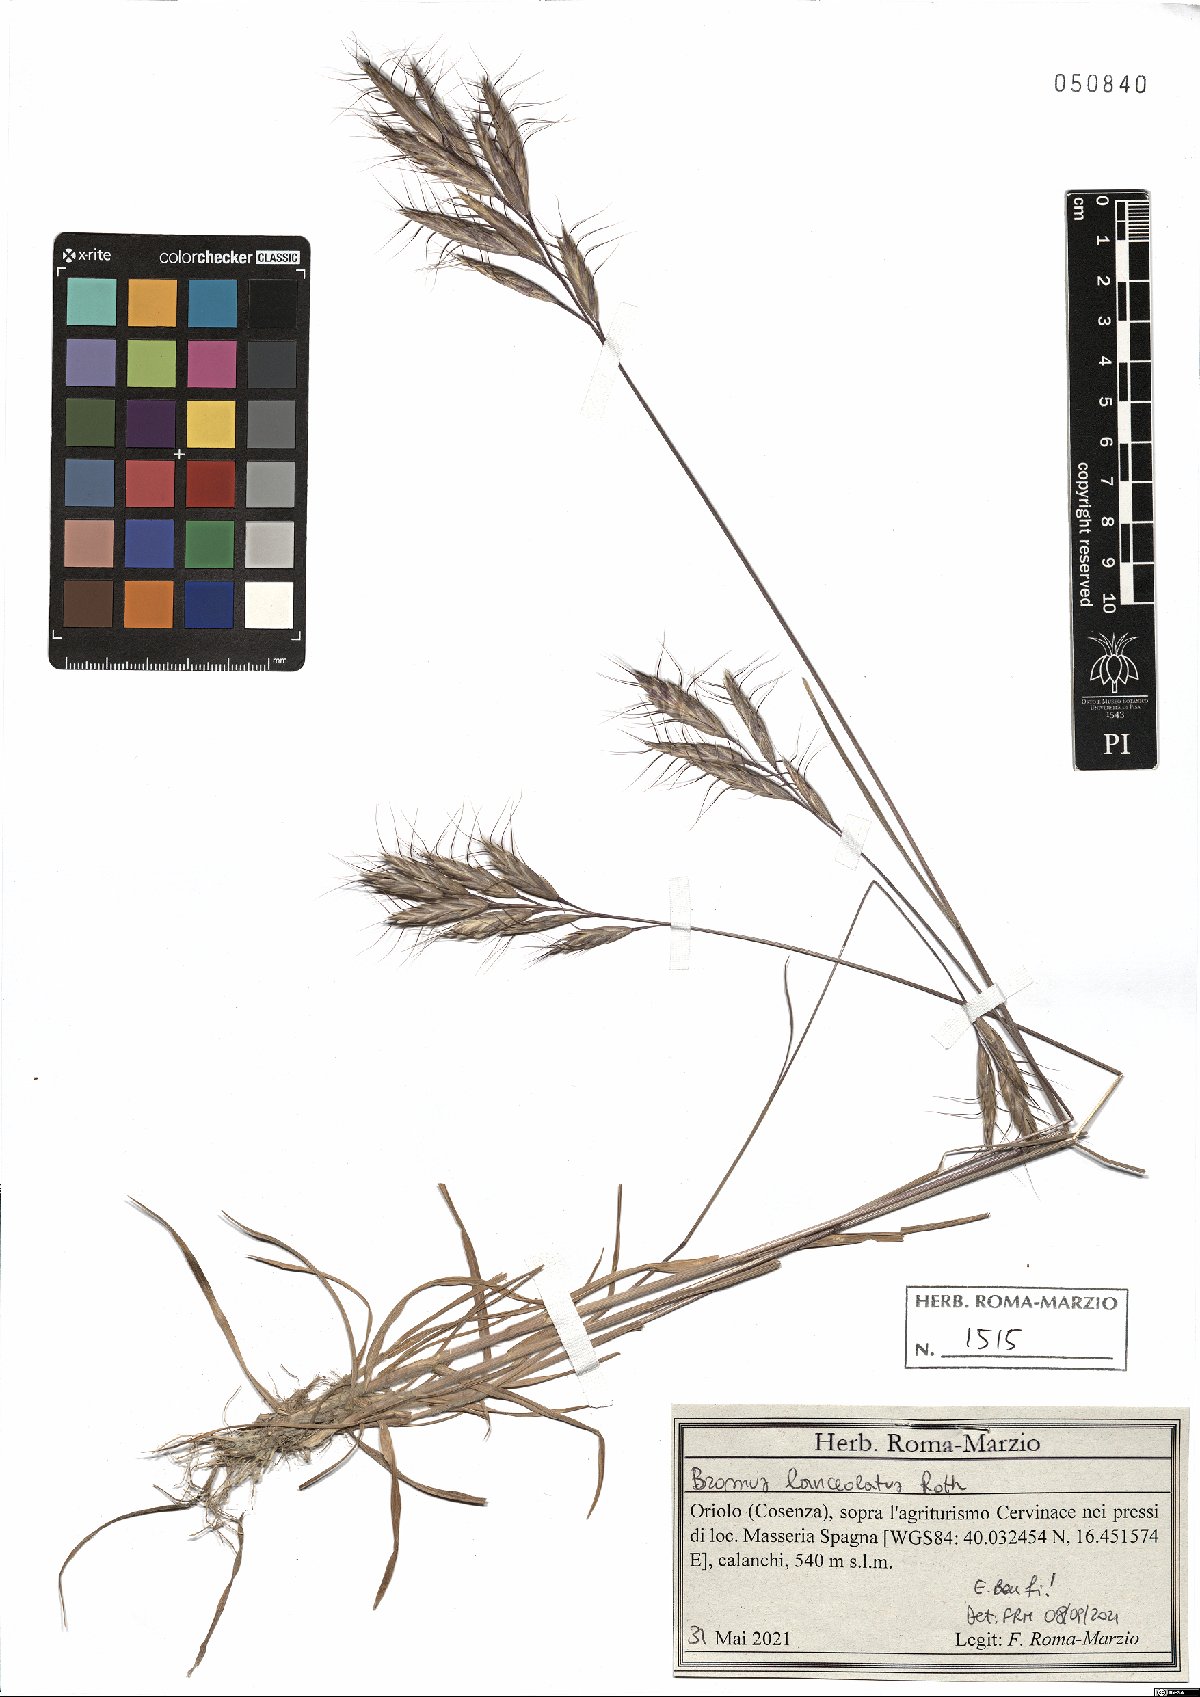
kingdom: Plantae
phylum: Tracheophyta
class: Liliopsida
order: Poales
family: Poaceae
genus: Bromus
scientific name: Bromus lanceolatus
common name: Mediterranean brome
